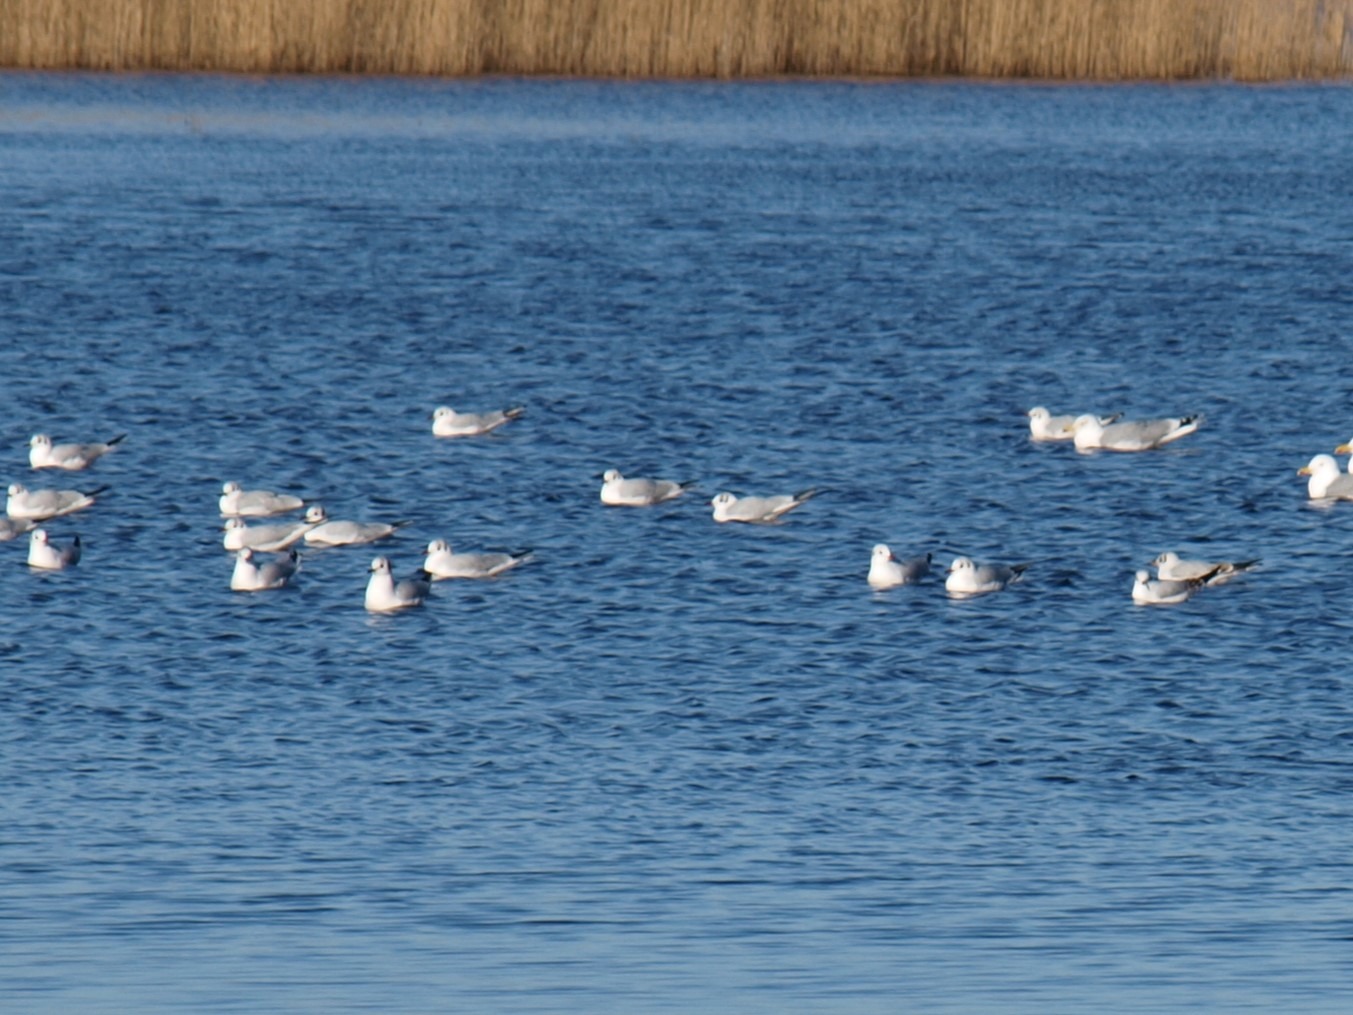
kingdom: Animalia
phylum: Chordata
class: Aves
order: Charadriiformes
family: Laridae
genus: Chroicocephalus
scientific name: Chroicocephalus ridibundus
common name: Hættemåge
